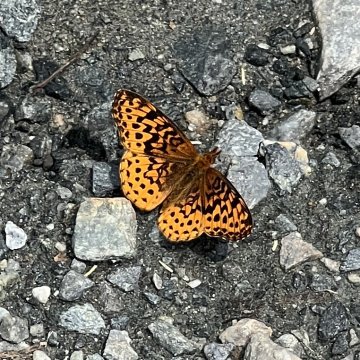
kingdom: Animalia
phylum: Arthropoda
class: Insecta
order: Lepidoptera
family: Nymphalidae
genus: Clossiana
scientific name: Clossiana toddi
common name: Meadow Fritillary
